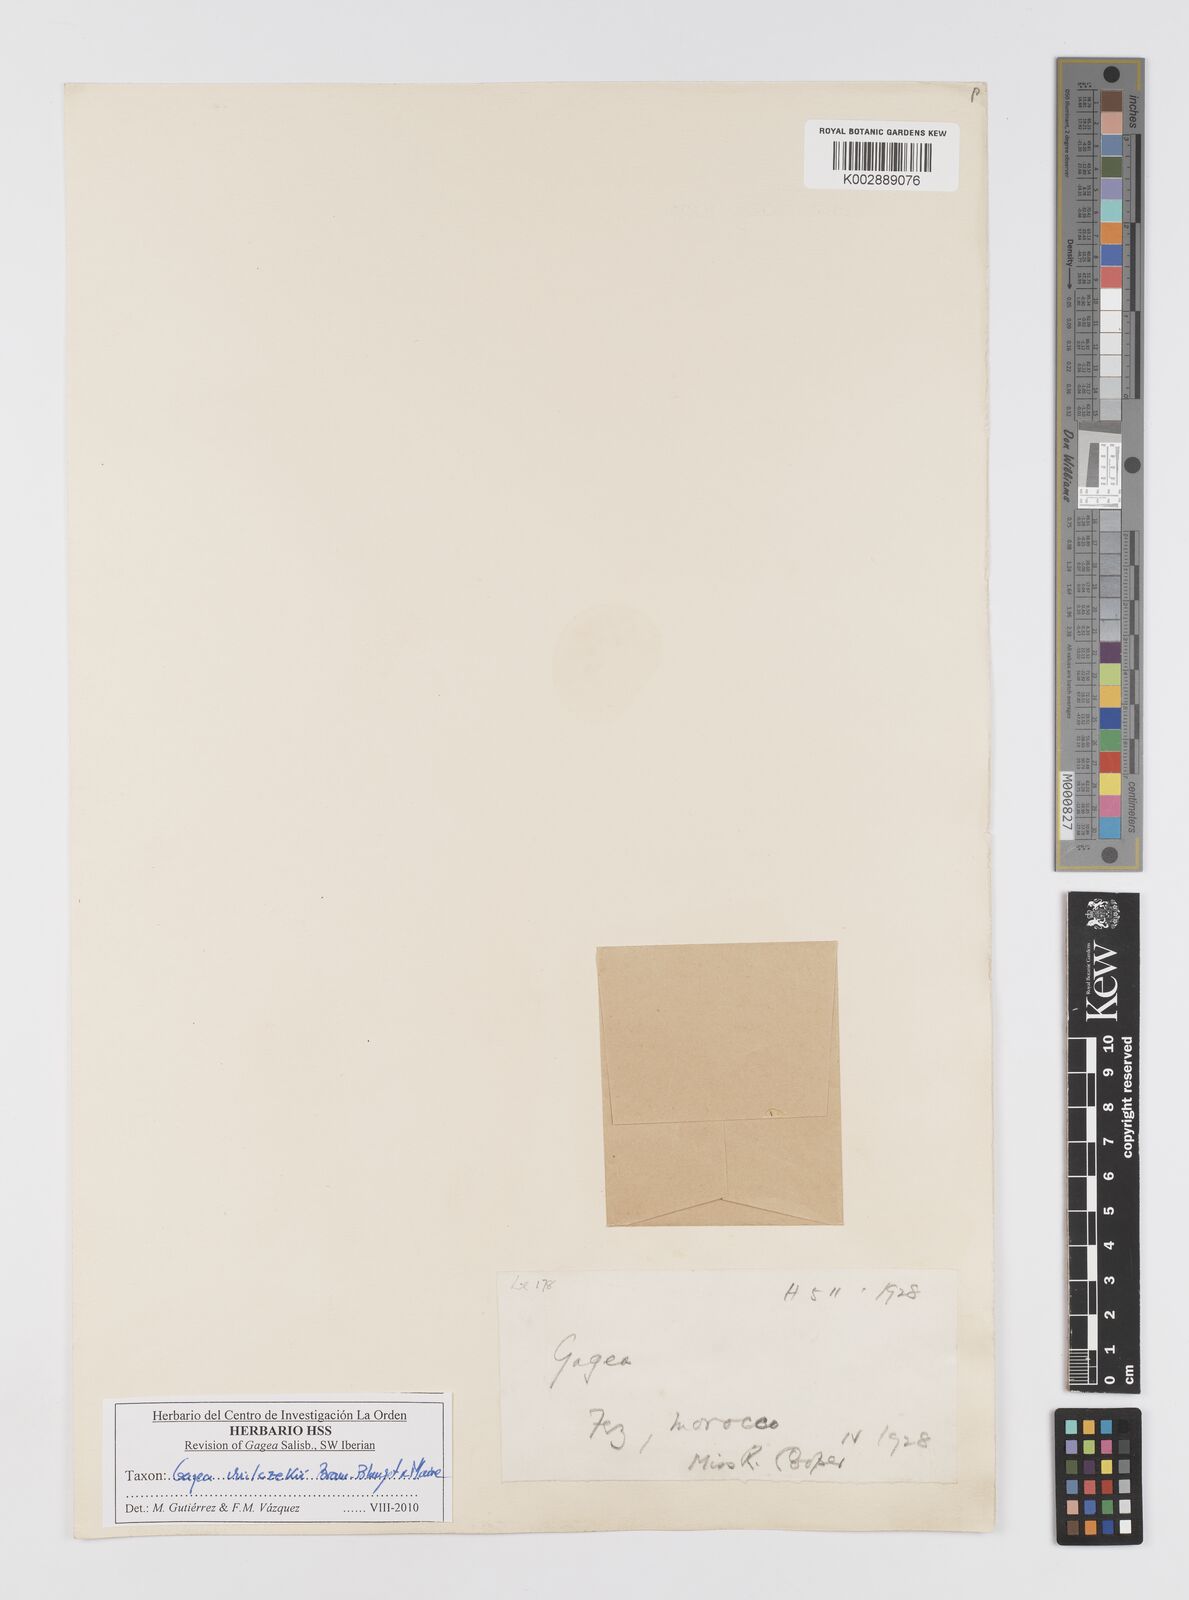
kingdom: Plantae
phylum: Tracheophyta
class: Liliopsida
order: Liliales
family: Liliaceae
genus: Gagea
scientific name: Gagea algeriensis
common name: Algerian gagea
